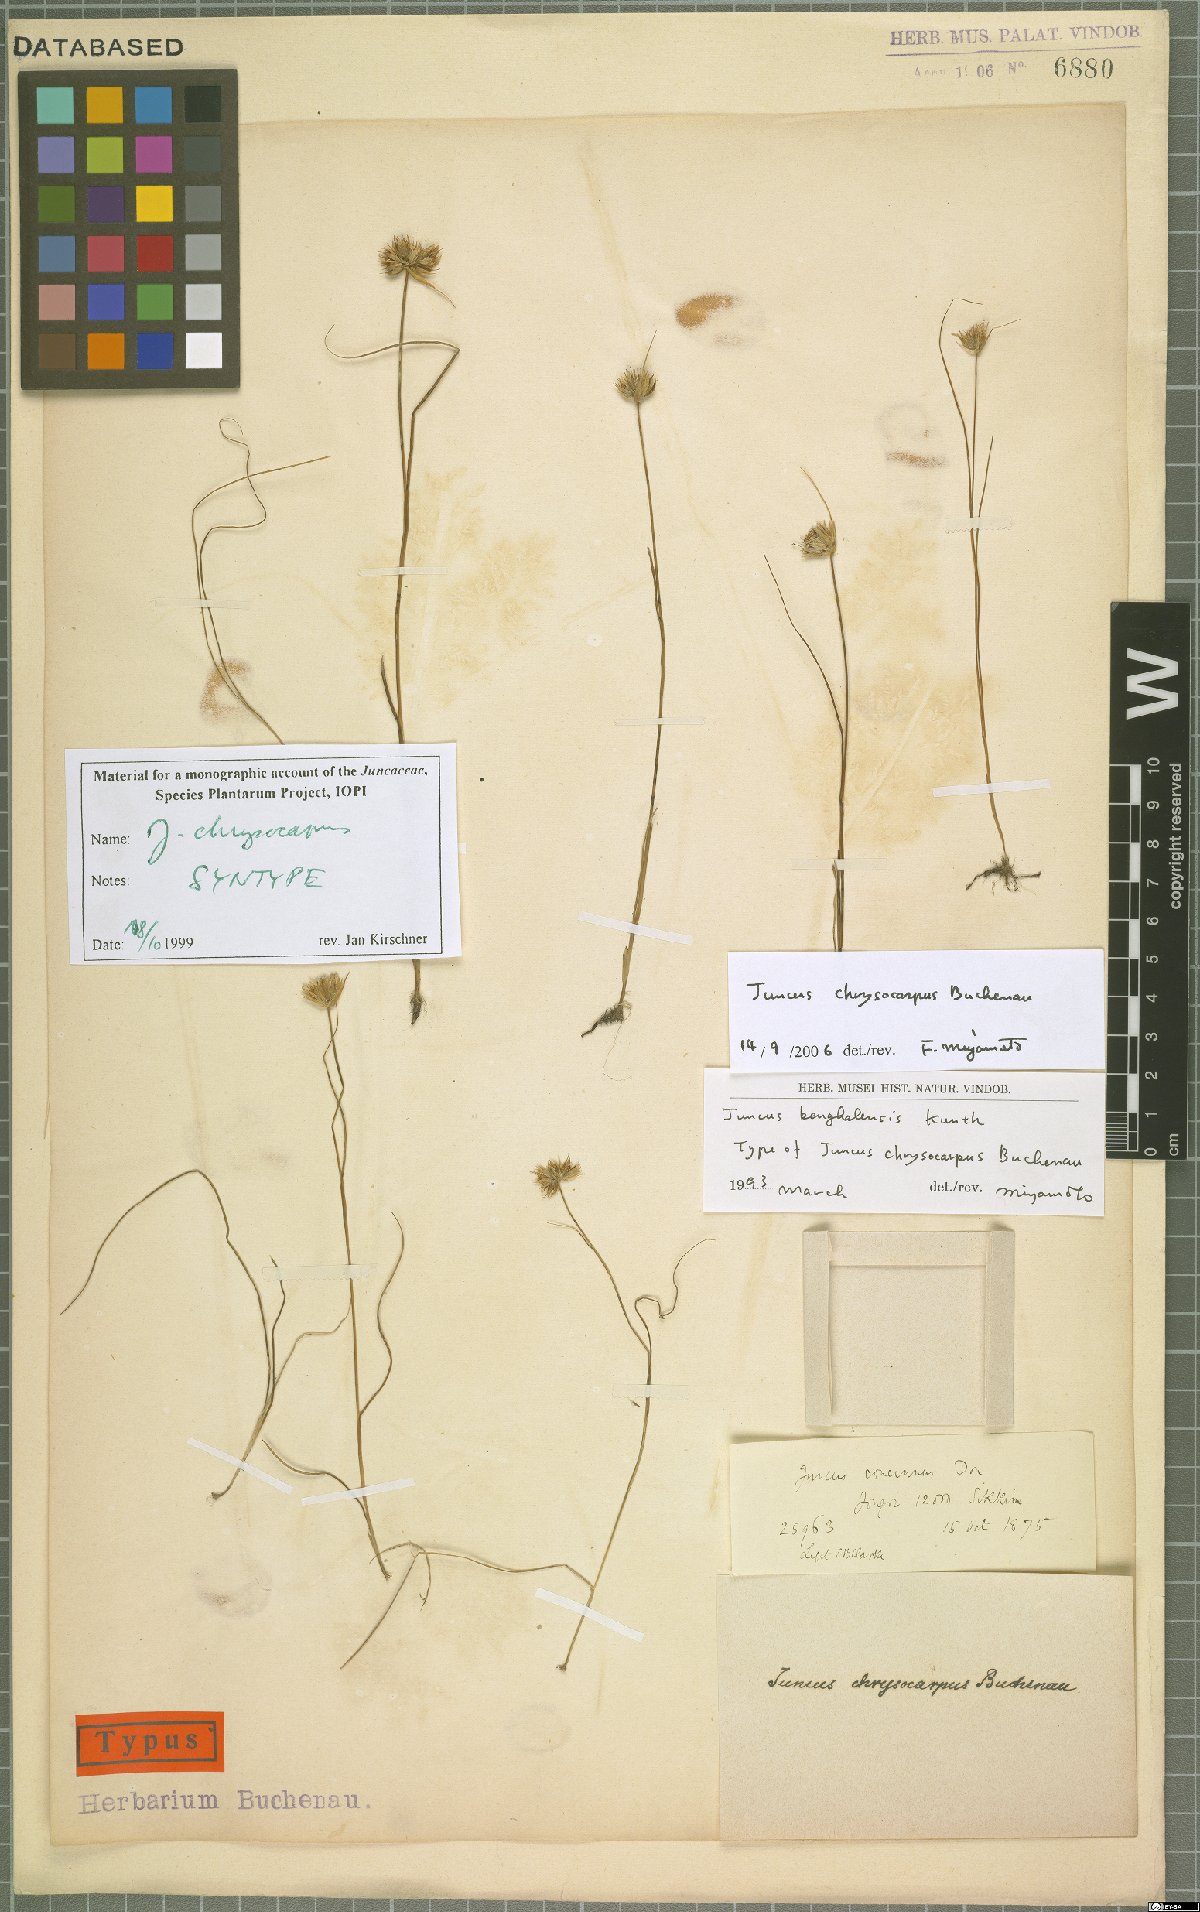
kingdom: Plantae
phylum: Tracheophyta
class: Liliopsida
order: Poales
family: Juncaceae
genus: Juncus
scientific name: Juncus chrysocarpus
